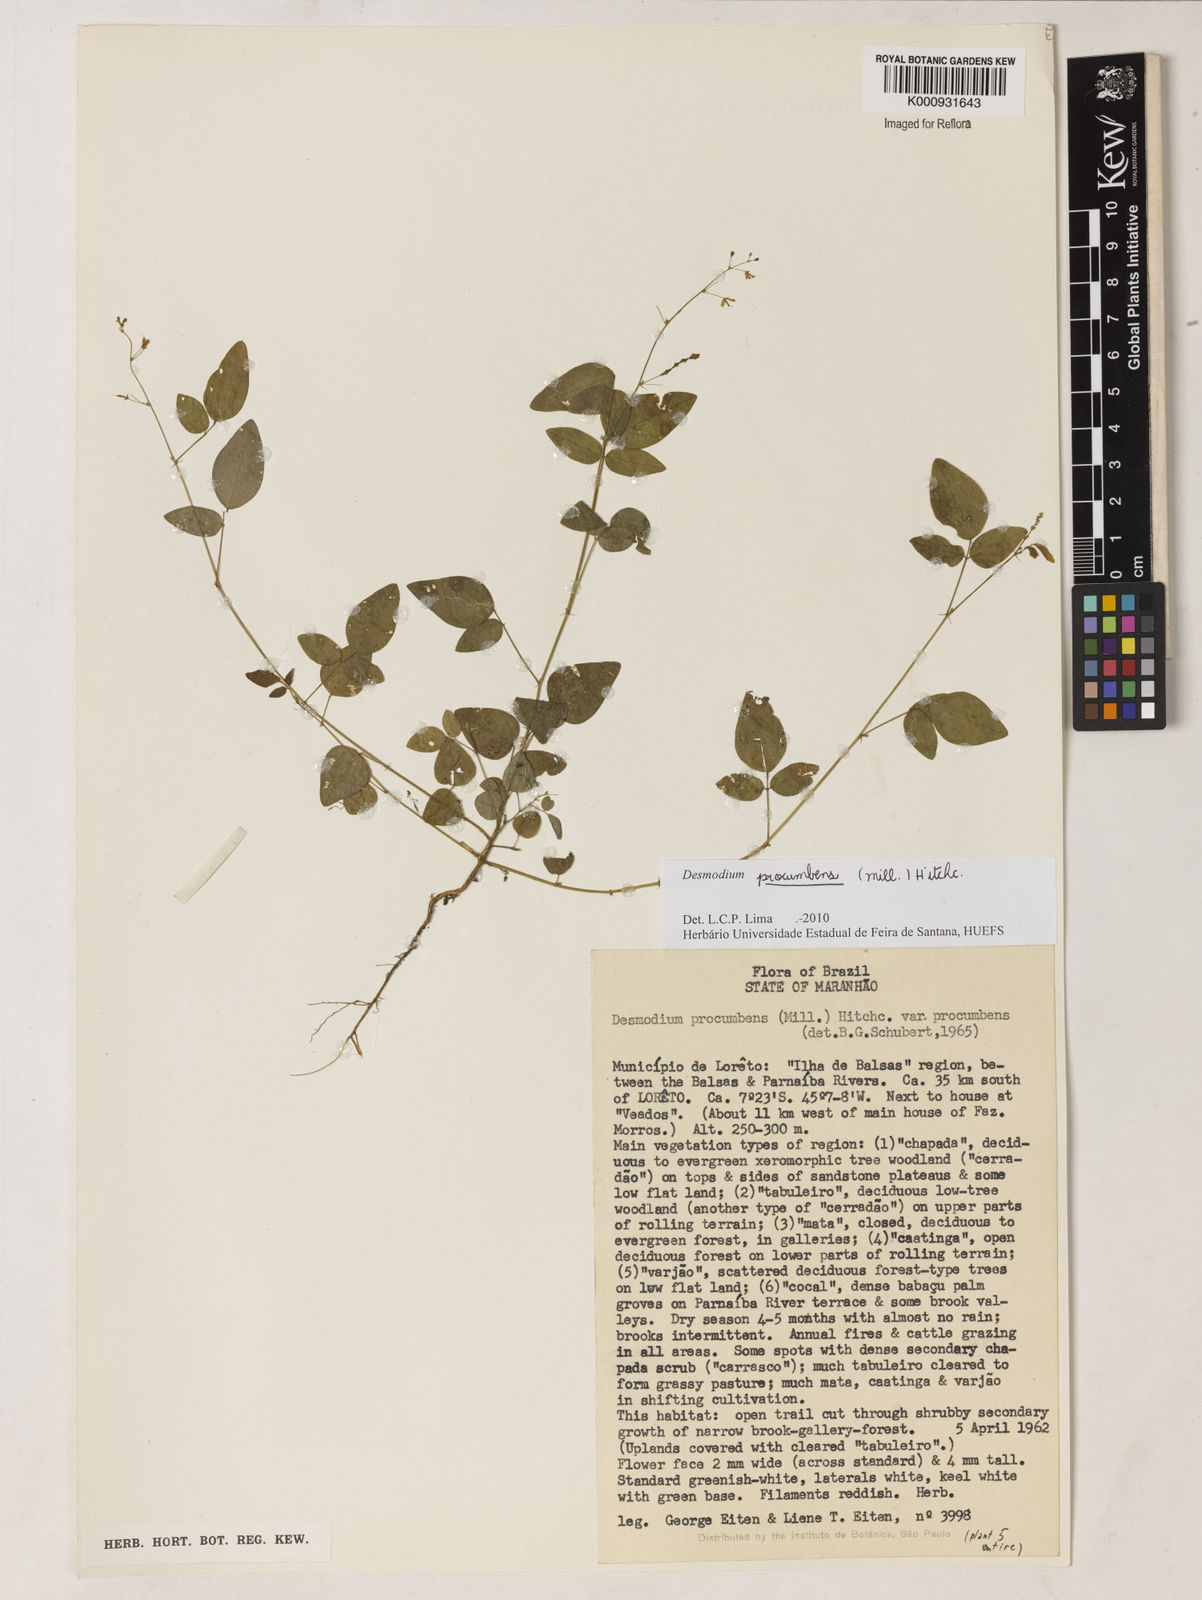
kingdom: Plantae
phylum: Tracheophyta
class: Magnoliopsida
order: Fabales
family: Fabaceae
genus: Desmodium
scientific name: Desmodium procumbens
